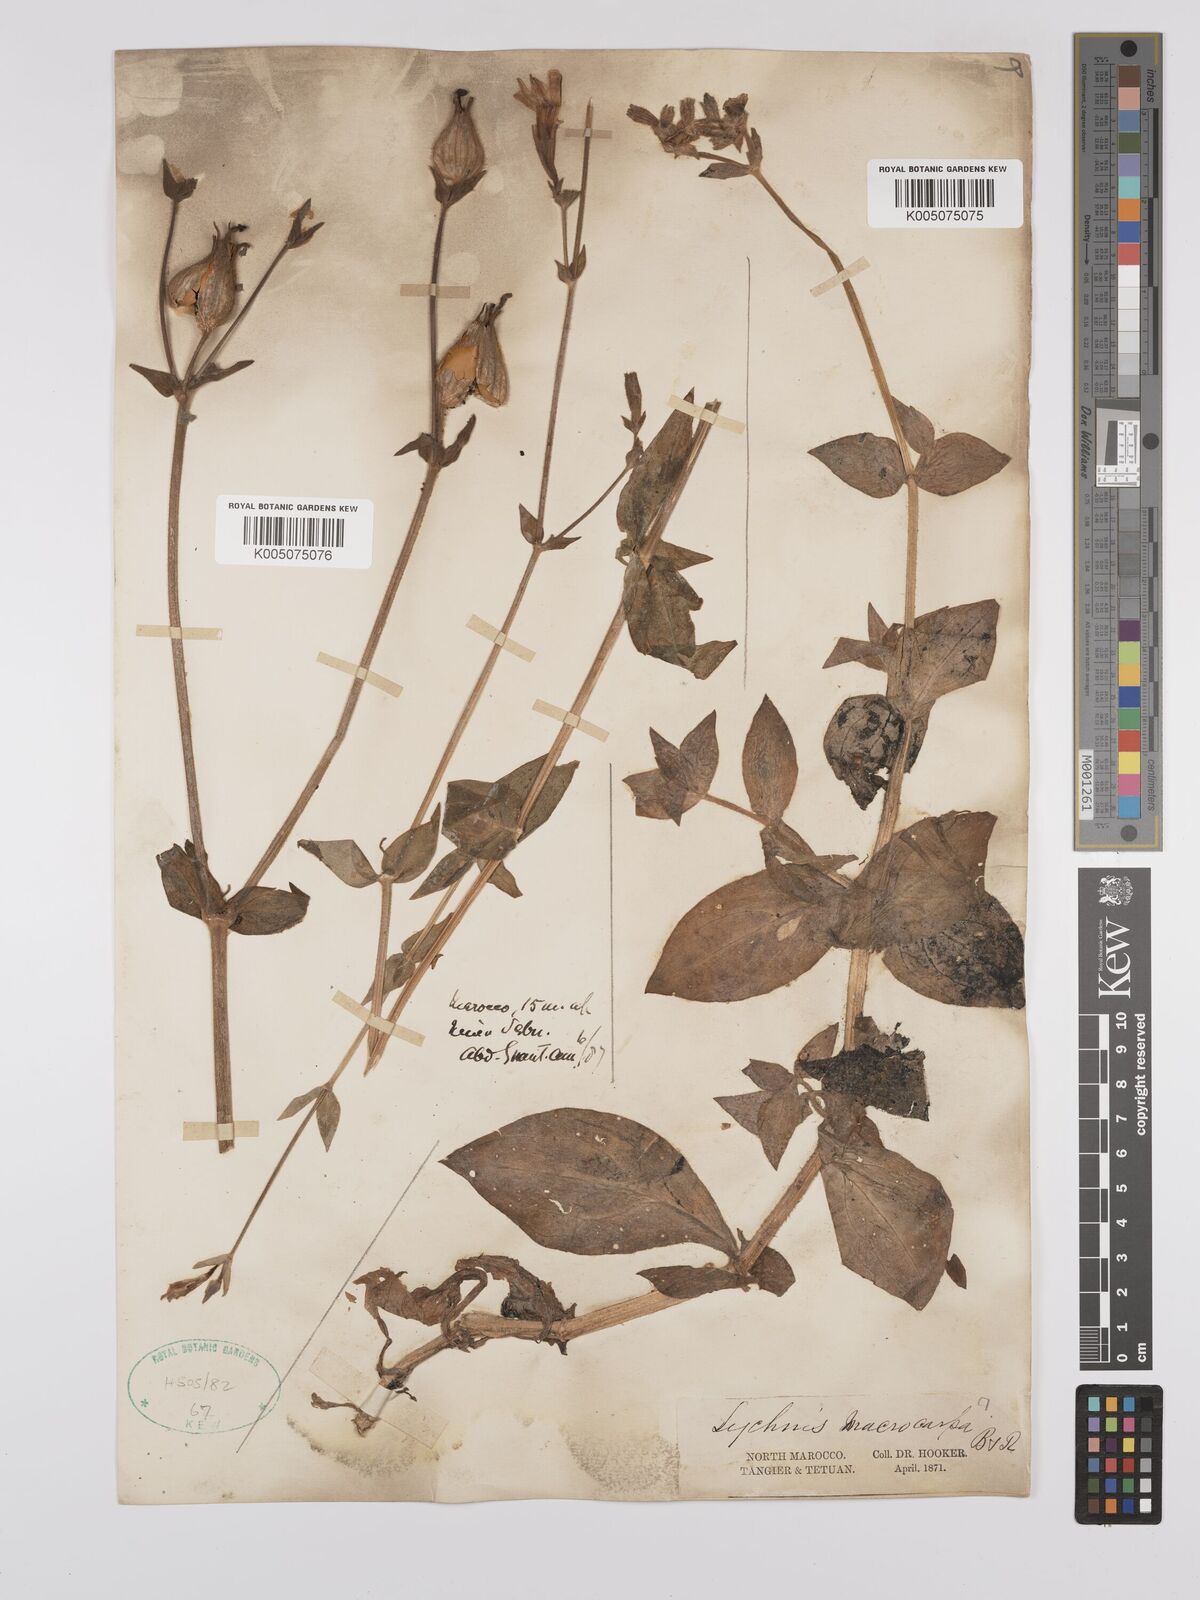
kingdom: Plantae
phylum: Tracheophyta
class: Magnoliopsida
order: Caryophyllales
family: Caryophyllaceae
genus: Silene
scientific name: Silene
